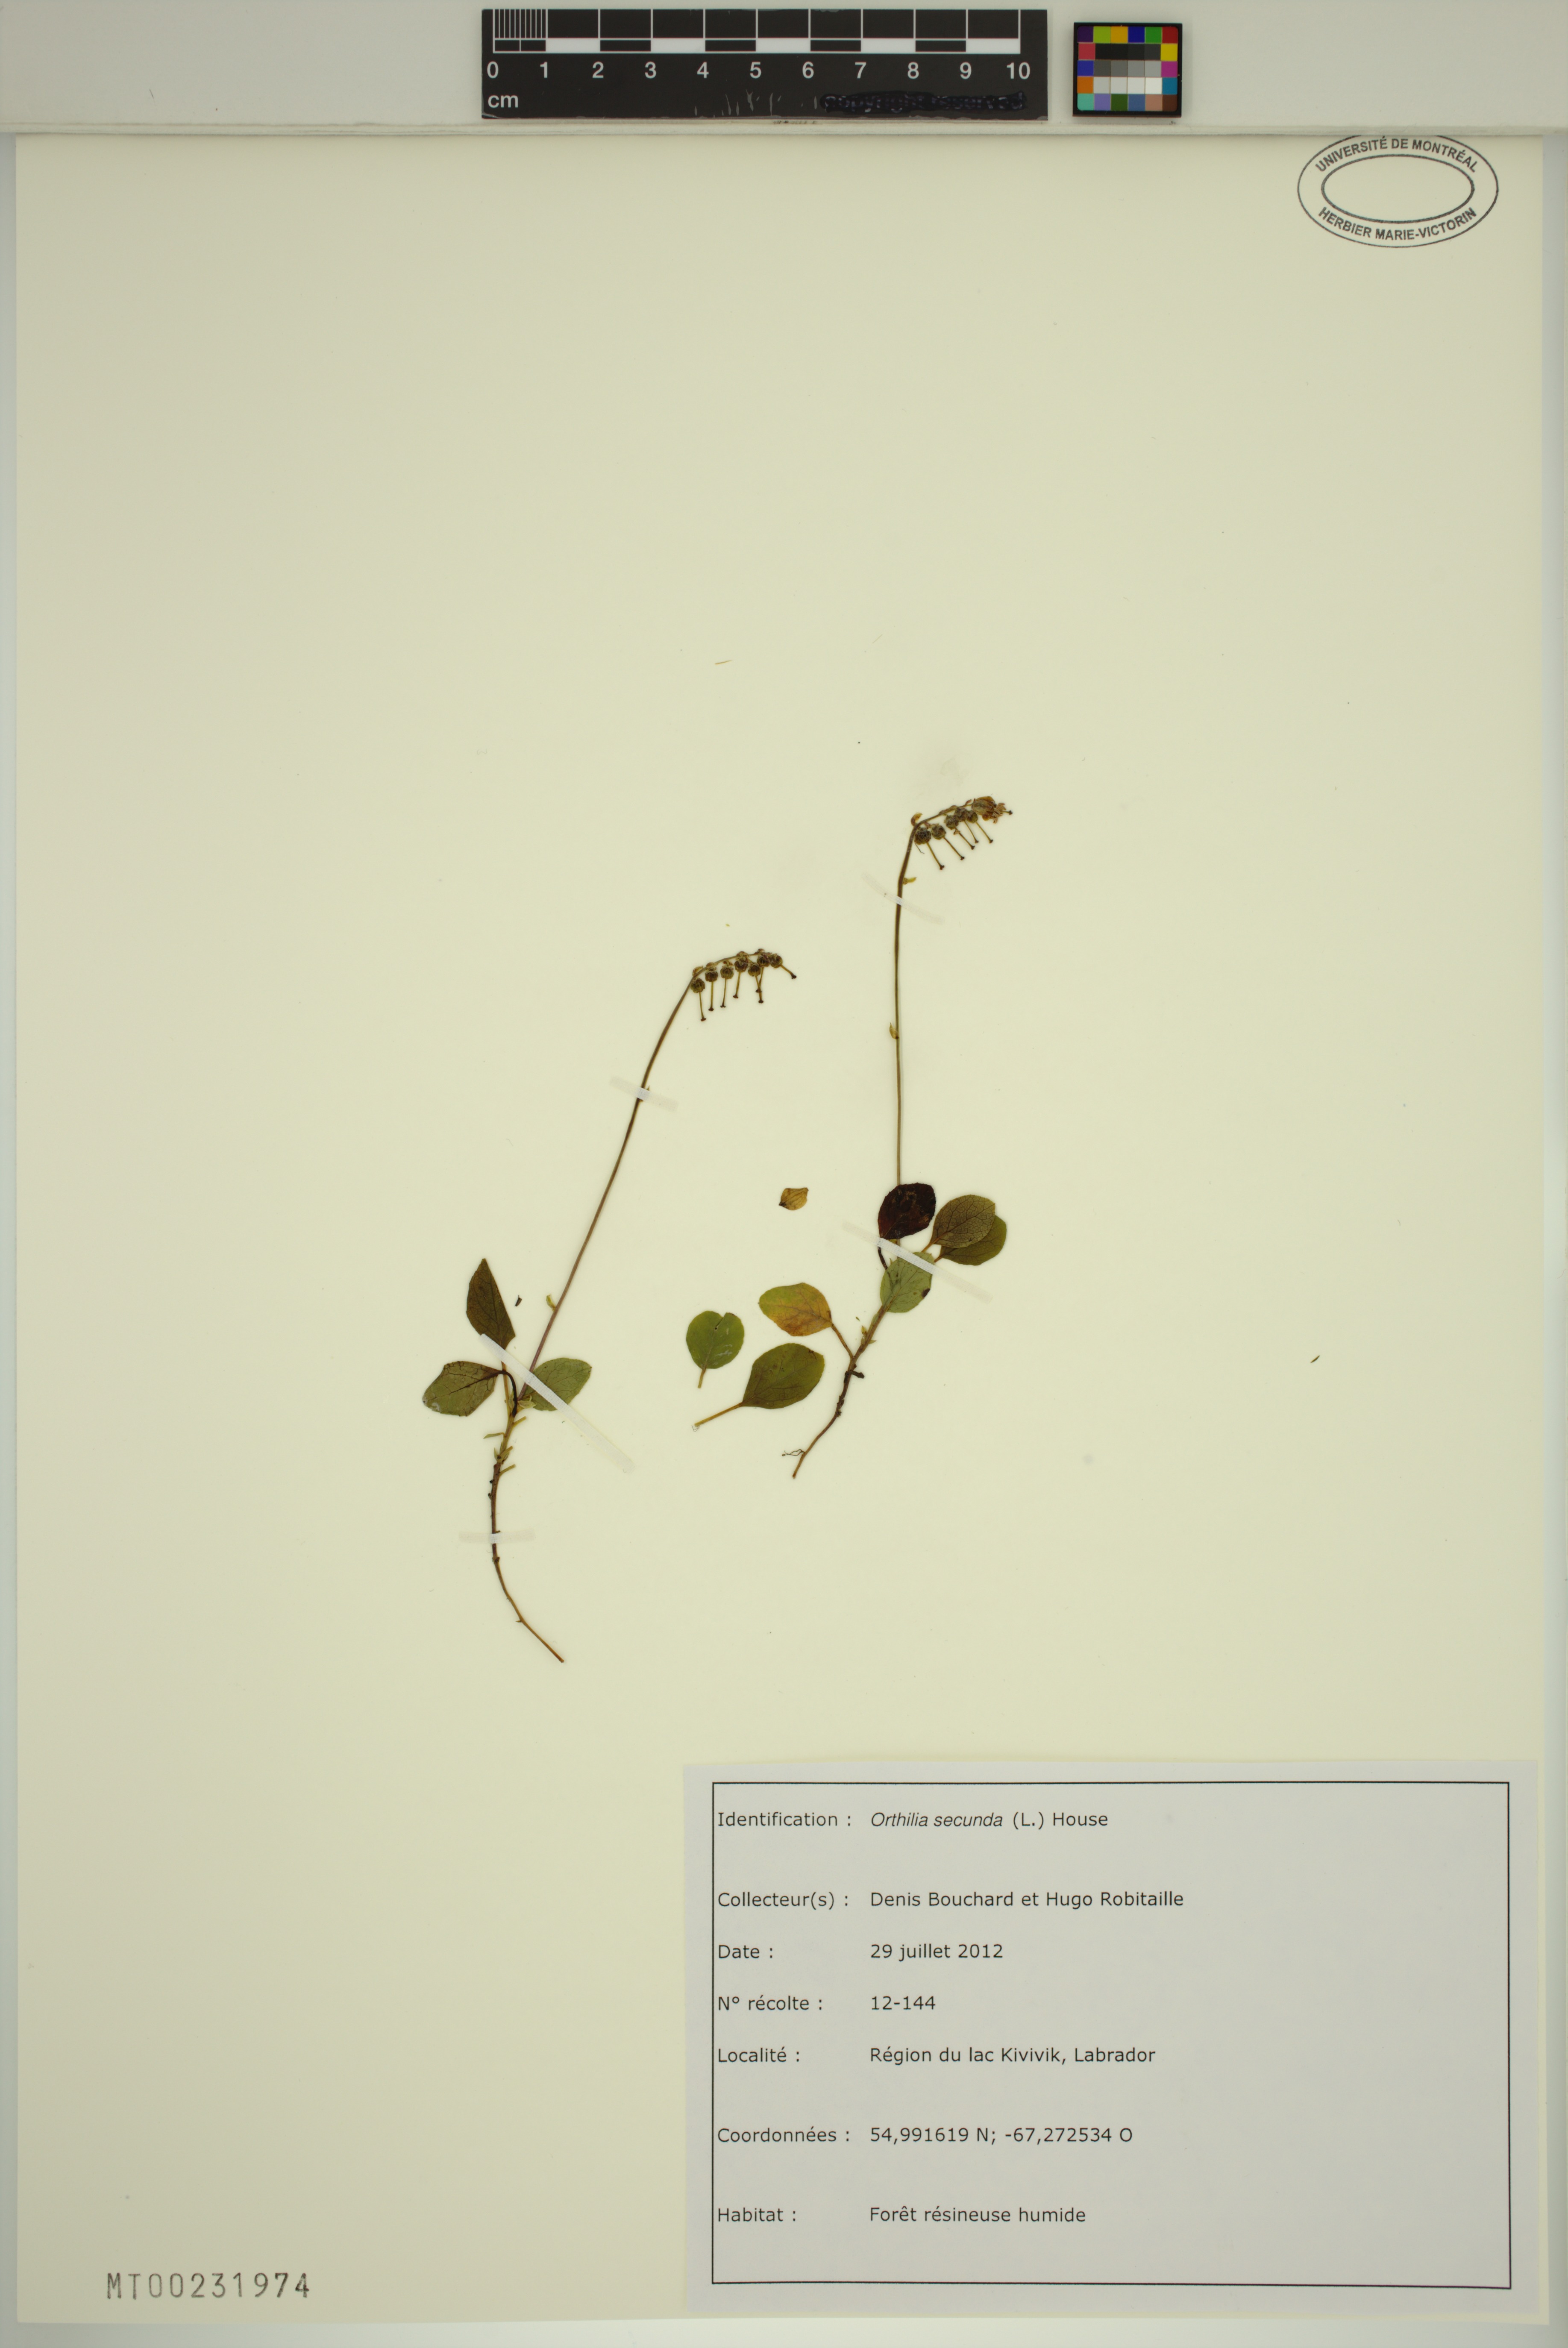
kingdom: Plantae
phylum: Tracheophyta
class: Magnoliopsida
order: Ericales
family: Ericaceae
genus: Orthilia
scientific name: Orthilia secunda
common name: One-sided orthilia
